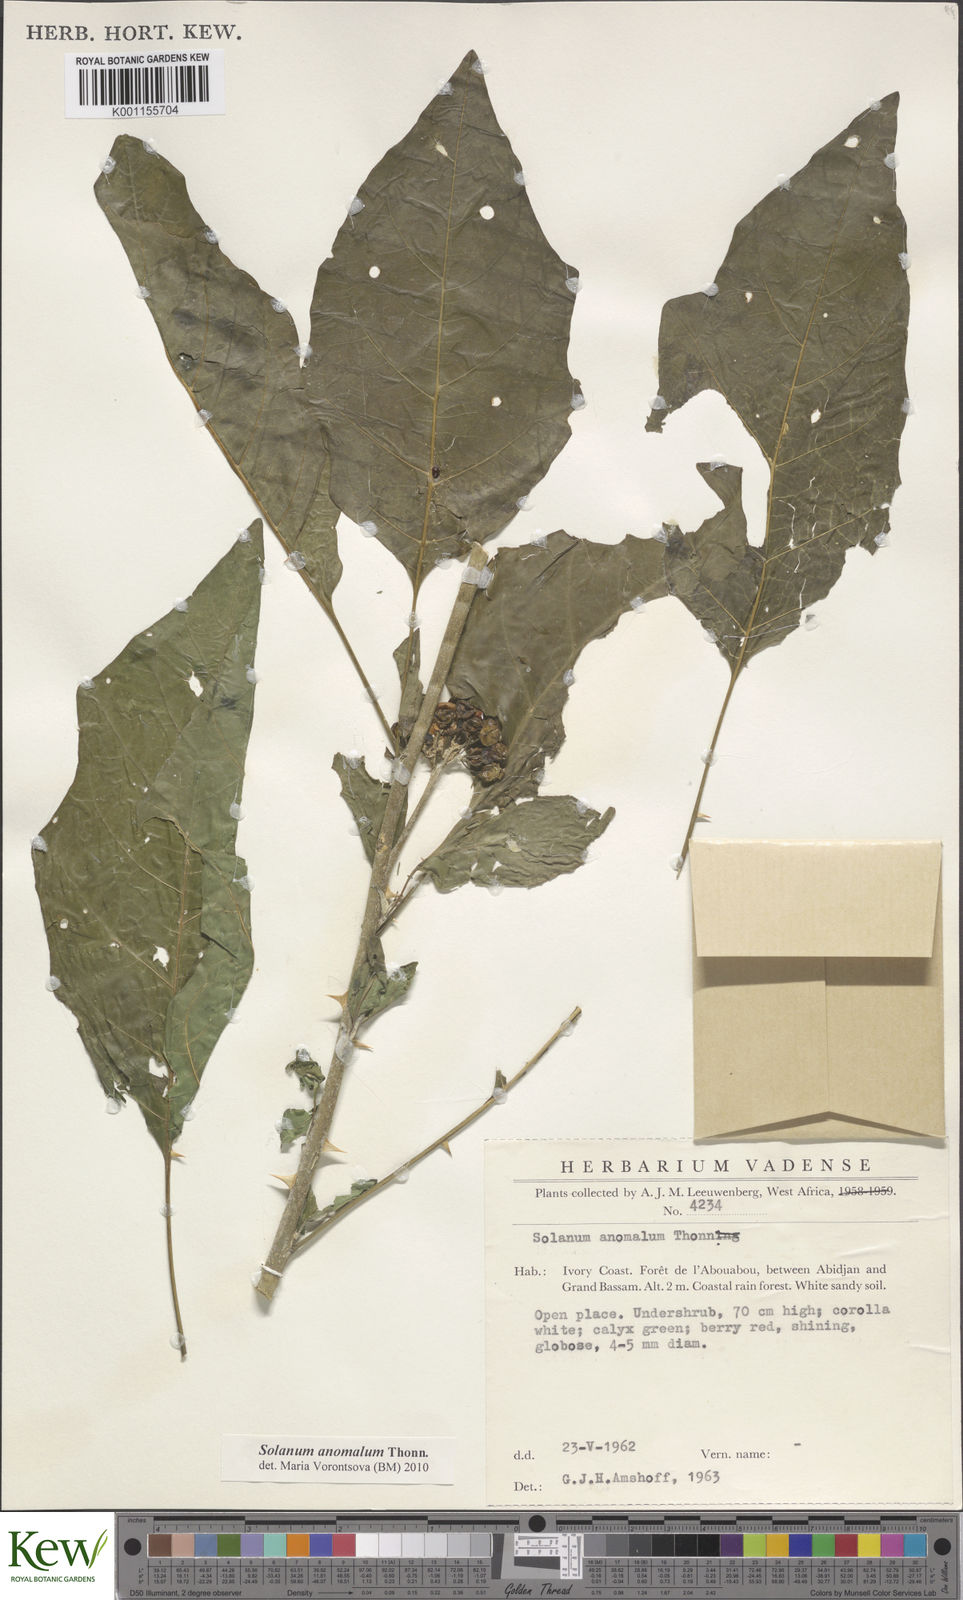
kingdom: Plantae
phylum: Tracheophyta
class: Magnoliopsida
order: Solanales
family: Solanaceae
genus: Solanum
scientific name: Solanum anomalum
